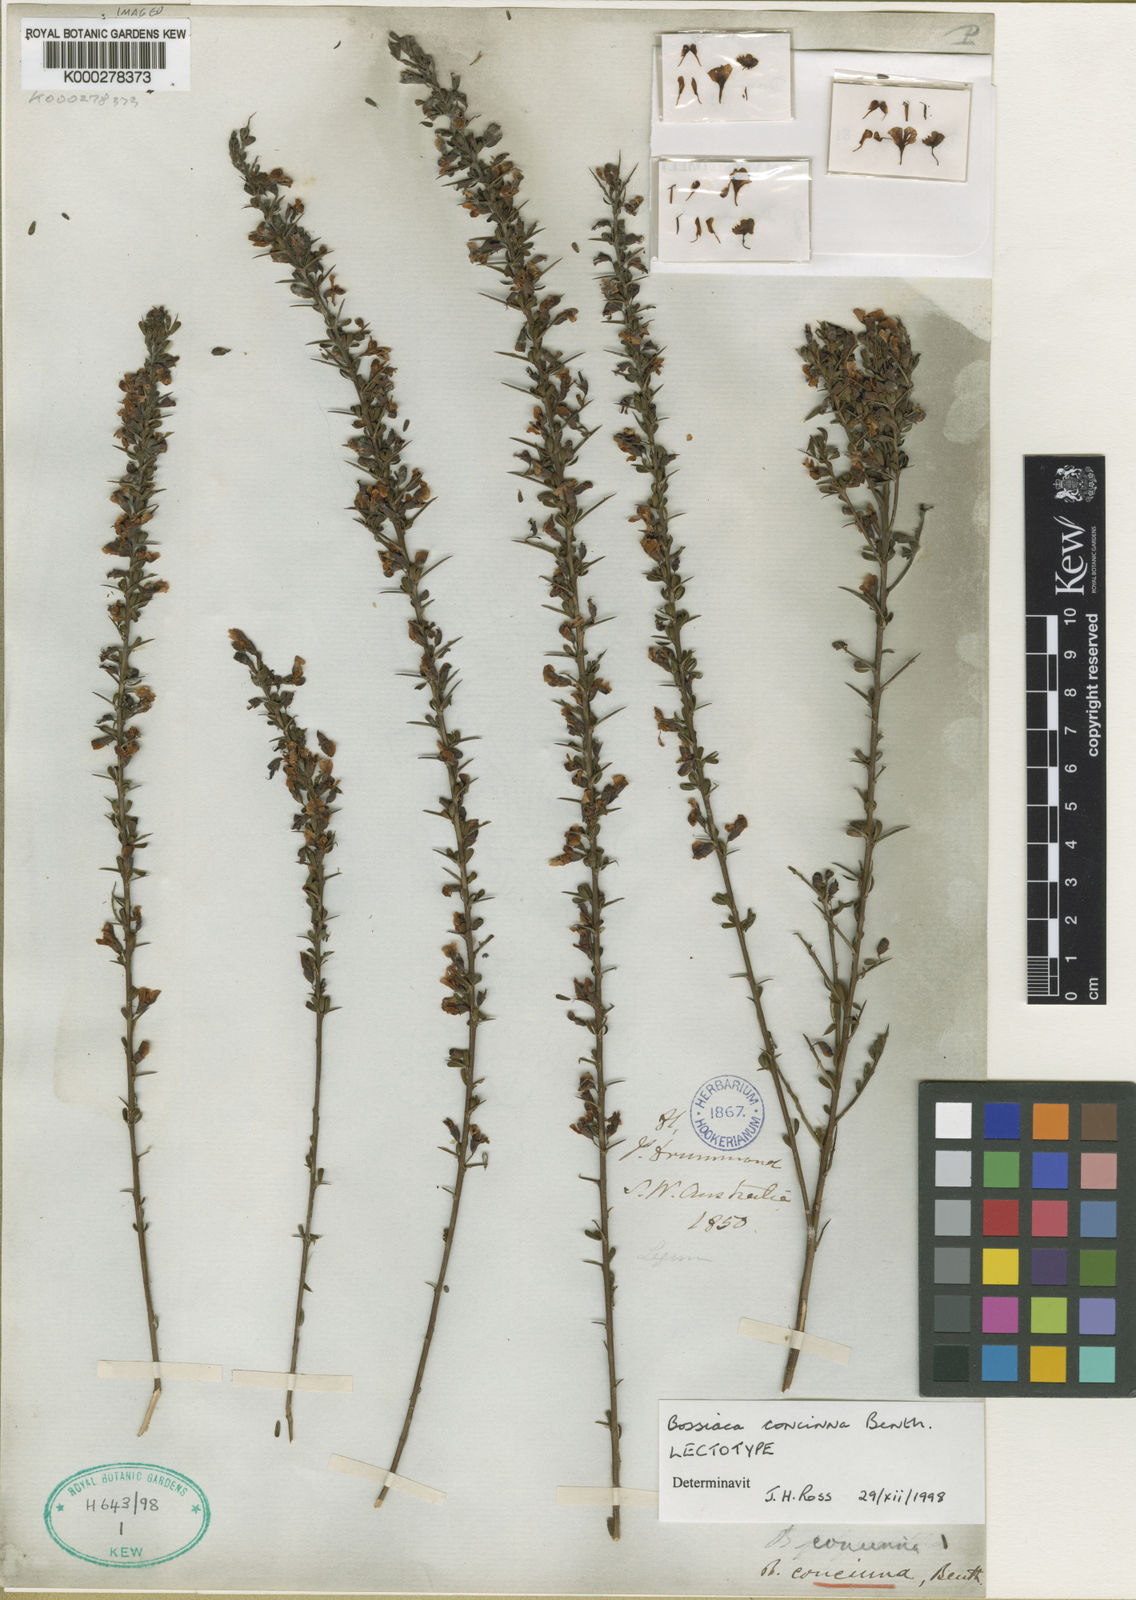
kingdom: Plantae
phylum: Tracheophyta
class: Magnoliopsida
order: Fabales
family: Fabaceae
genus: Bossiaea
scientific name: Bossiaea concinna
